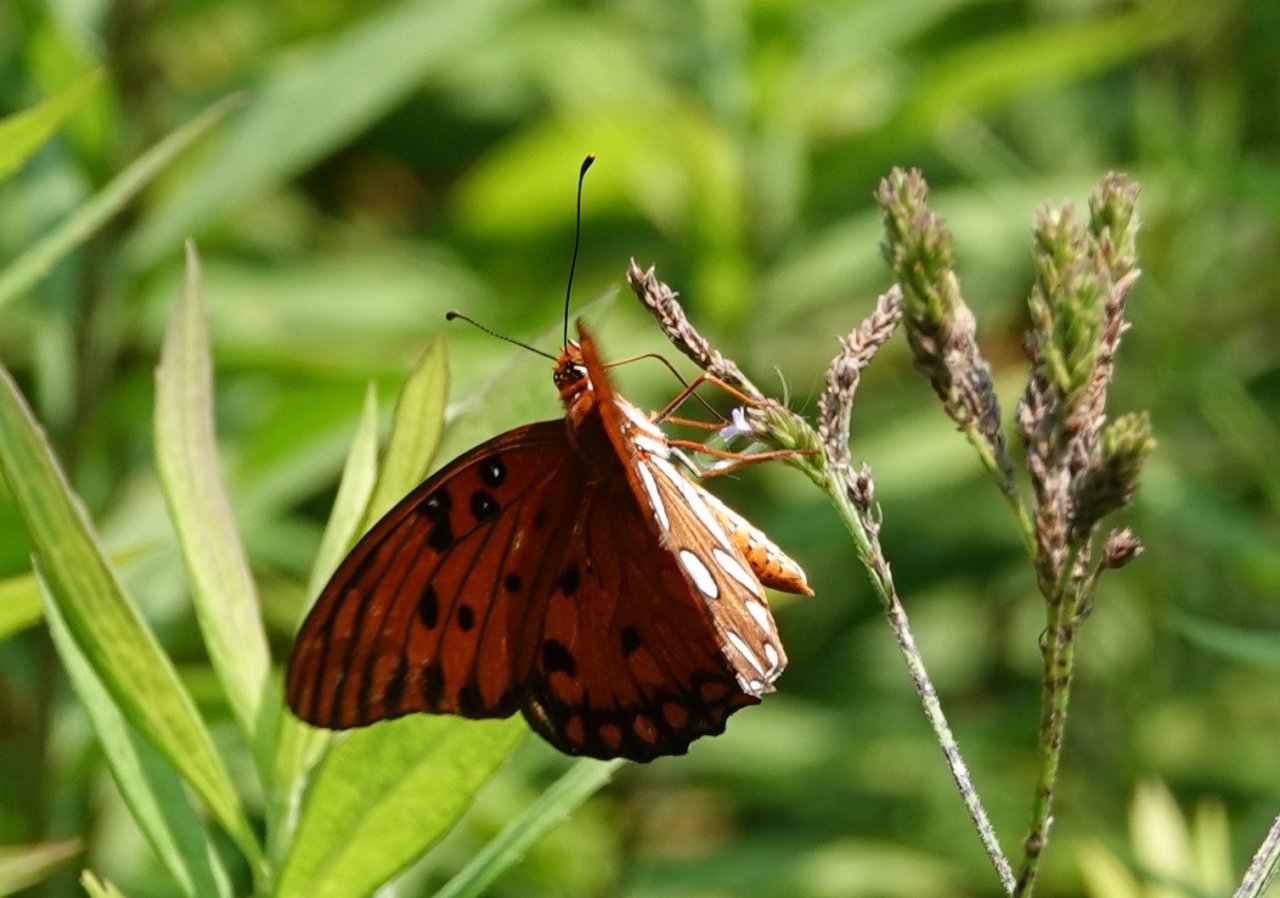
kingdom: Animalia
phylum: Arthropoda
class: Insecta
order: Lepidoptera
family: Nymphalidae
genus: Dione
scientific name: Dione vanillae
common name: Gulf Fritillary
